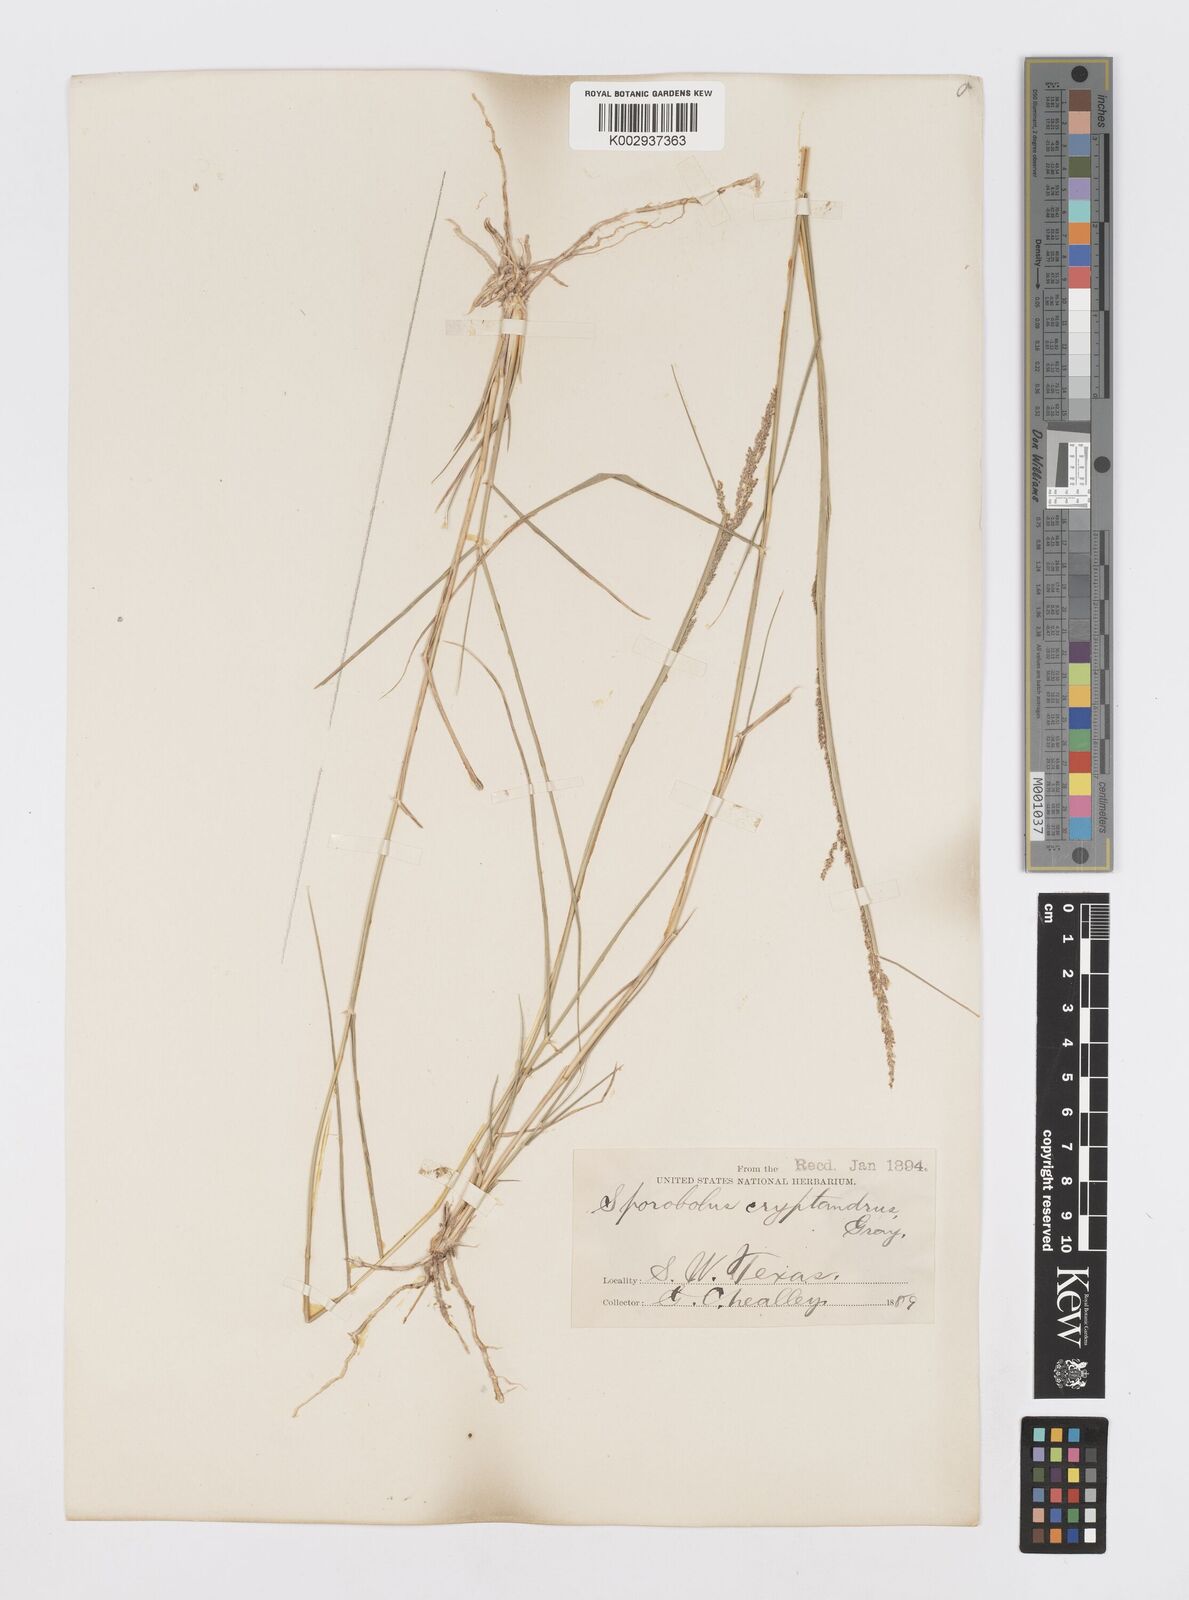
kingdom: Plantae
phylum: Tracheophyta
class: Liliopsida
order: Poales
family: Poaceae
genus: Sporobolus
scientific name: Sporobolus cryptandrus
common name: Sand dropseed
